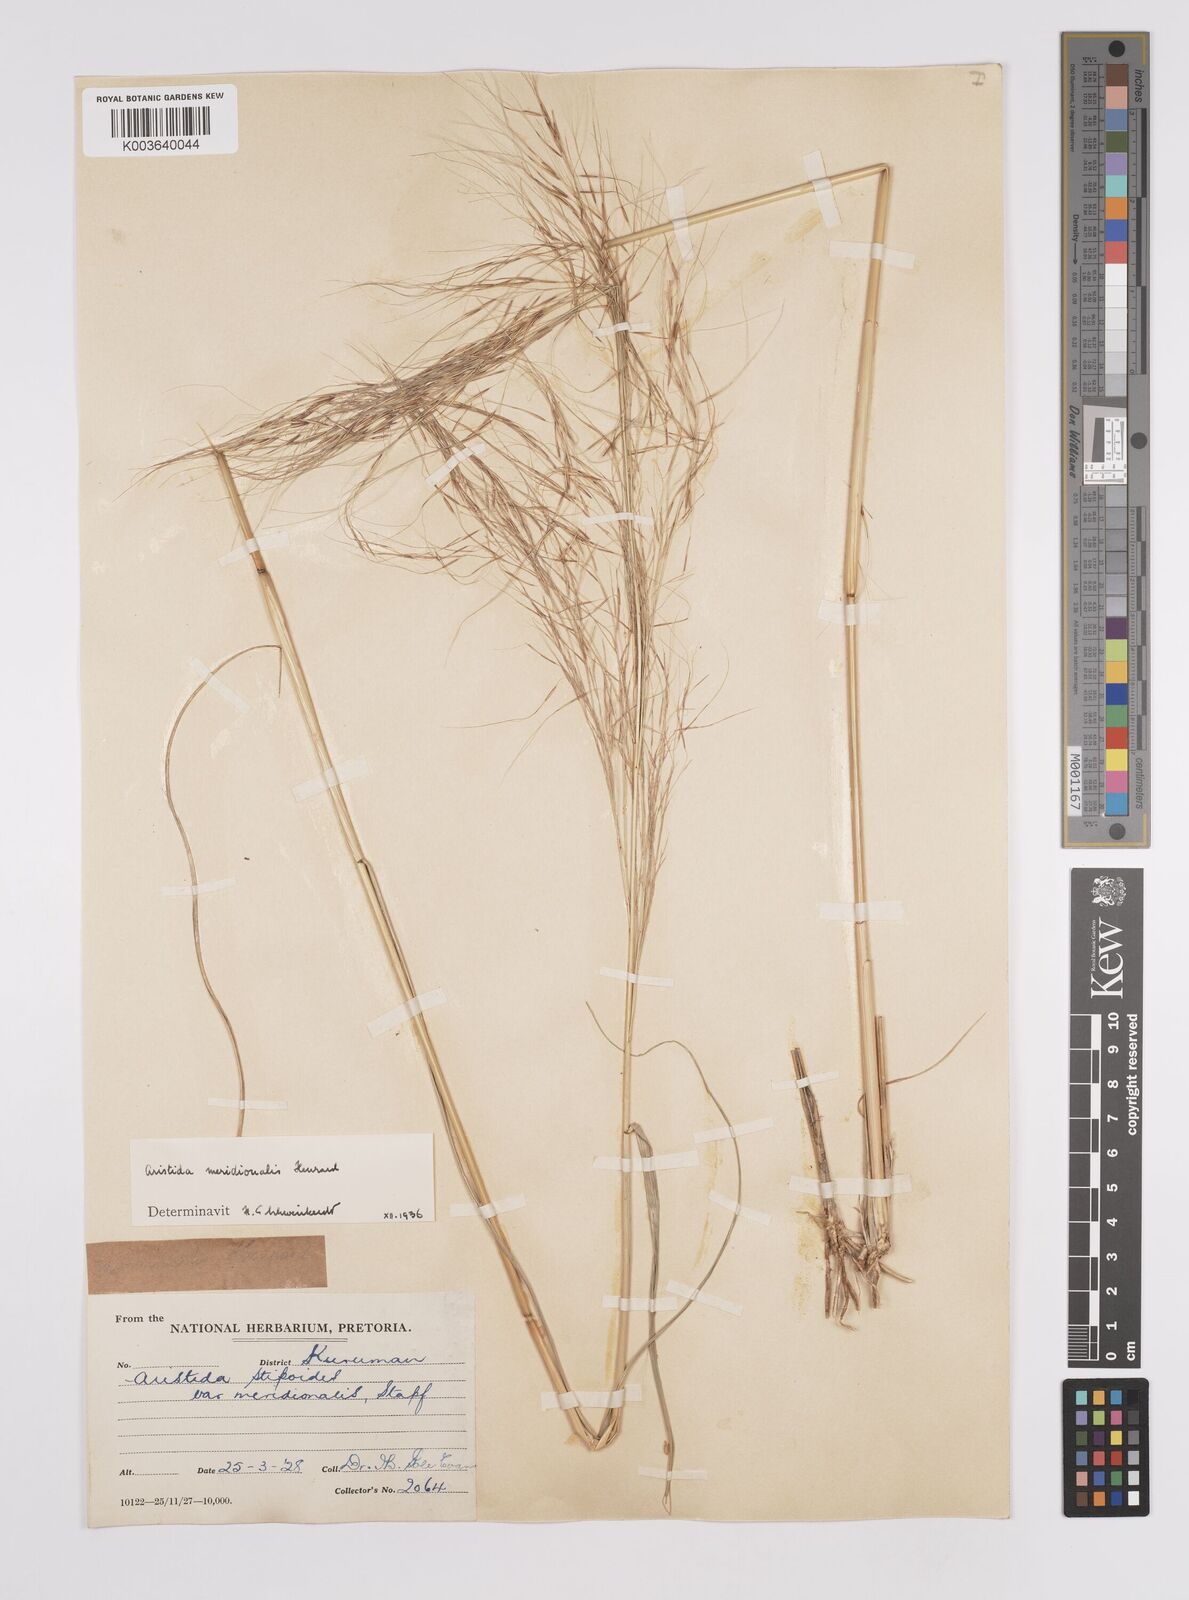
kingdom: Plantae
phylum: Tracheophyta
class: Liliopsida
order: Poales
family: Poaceae
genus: Aristida
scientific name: Aristida meridionalis
